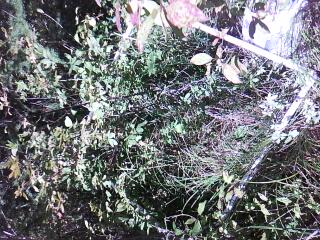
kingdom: Plantae
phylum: Tracheophyta
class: Magnoliopsida
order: Asterales
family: Asteraceae
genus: Solidago
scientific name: Solidago patula
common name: Rough-leaf goldenrod
